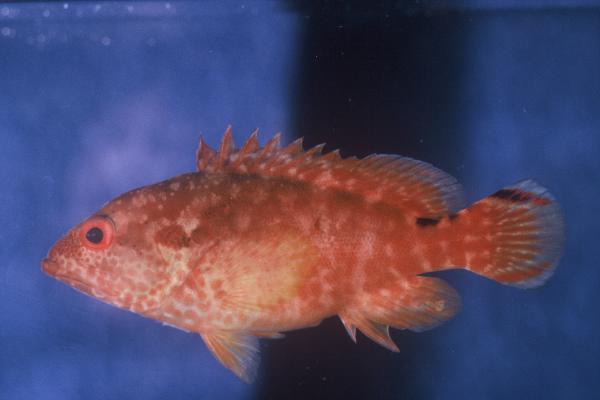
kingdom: Animalia
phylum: Chordata
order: Perciformes
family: Serranidae
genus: Cephalopholis
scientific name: Cephalopholis leopardus
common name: Leopard hind
